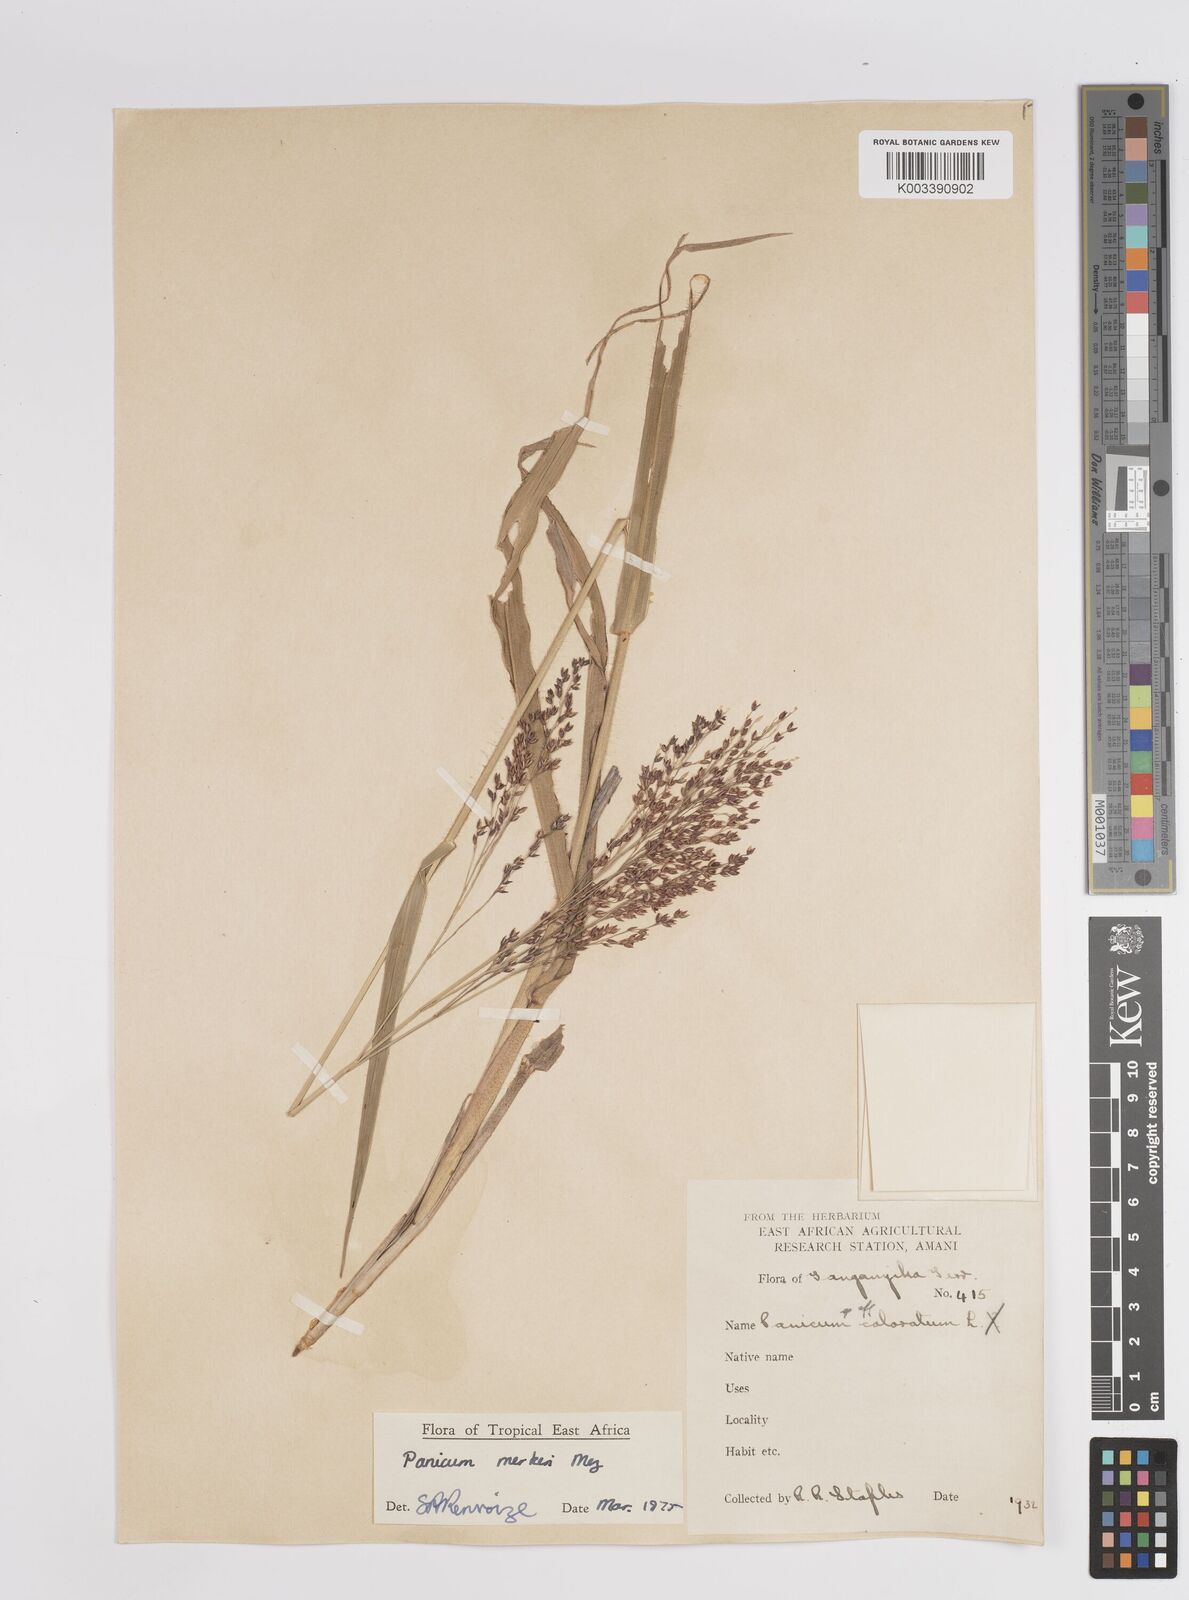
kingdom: Plantae
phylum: Tracheophyta
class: Liliopsida
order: Poales
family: Poaceae
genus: Panicum
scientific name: Panicum merkeri
